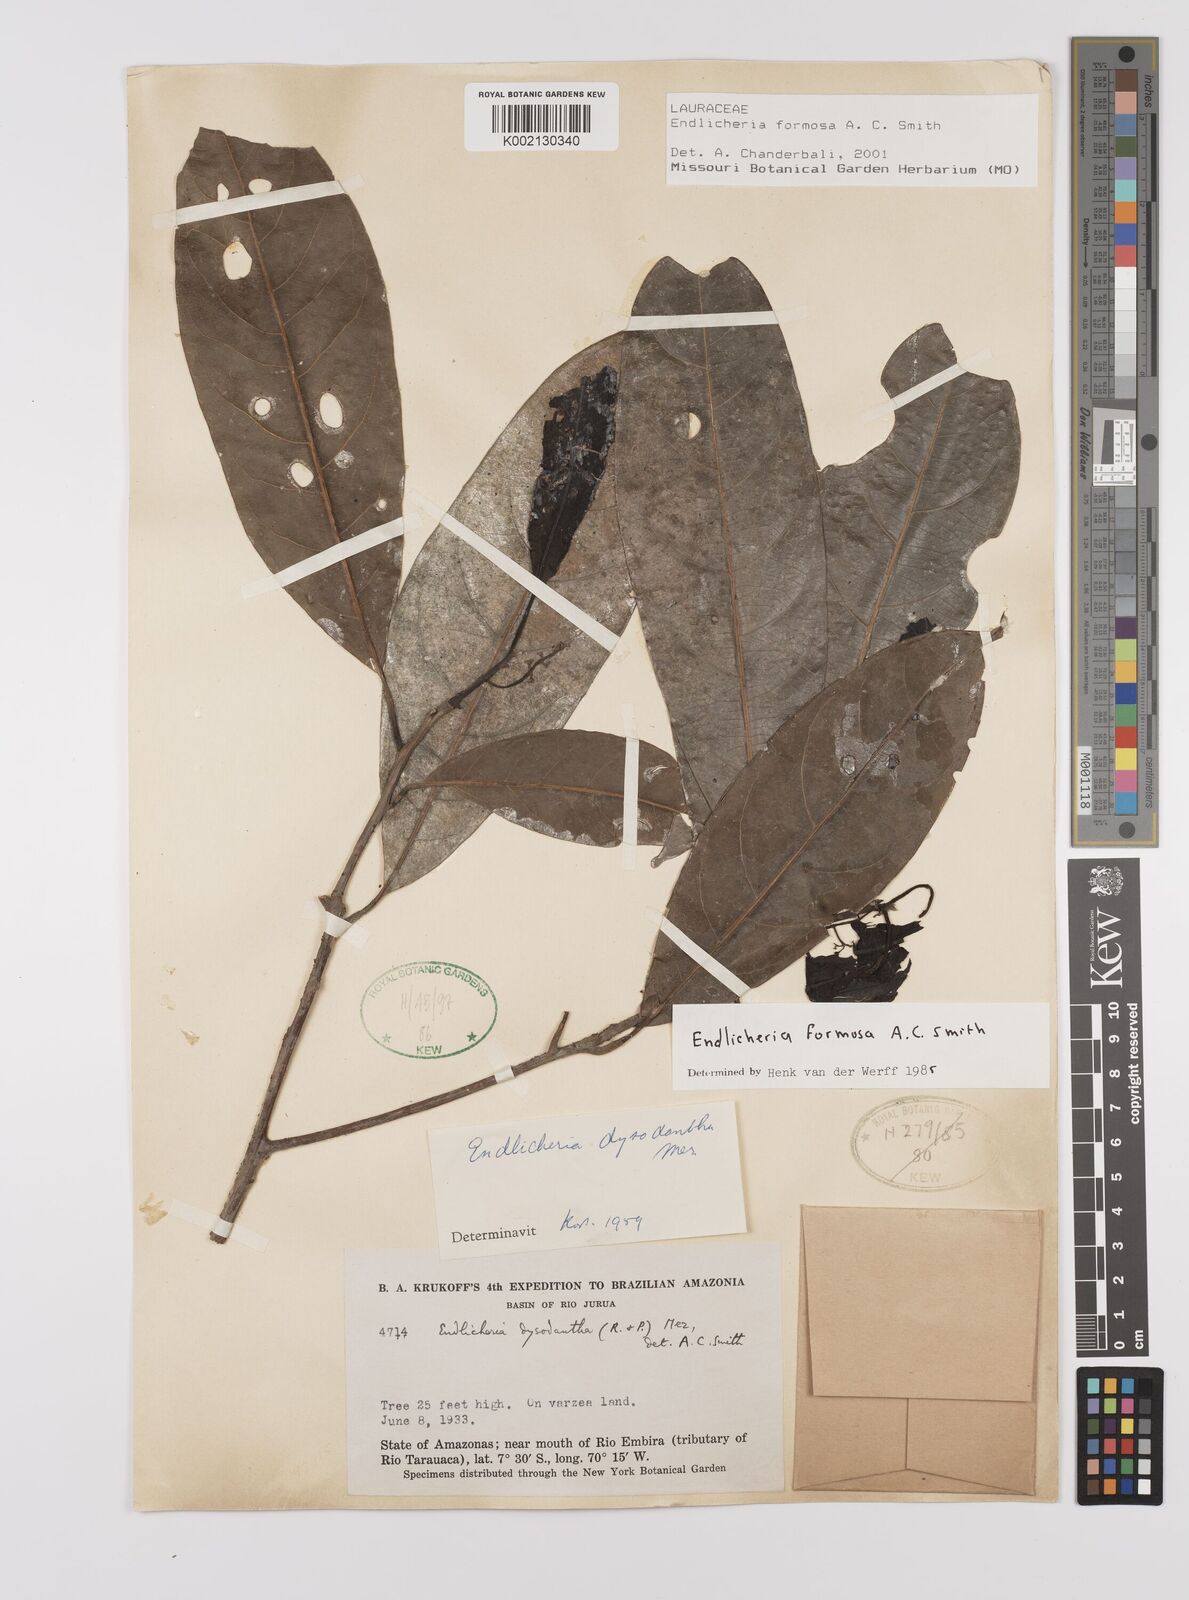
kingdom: Plantae
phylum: Tracheophyta
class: Magnoliopsida
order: Laurales
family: Lauraceae
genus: Endlicheria
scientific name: Endlicheria formosa
